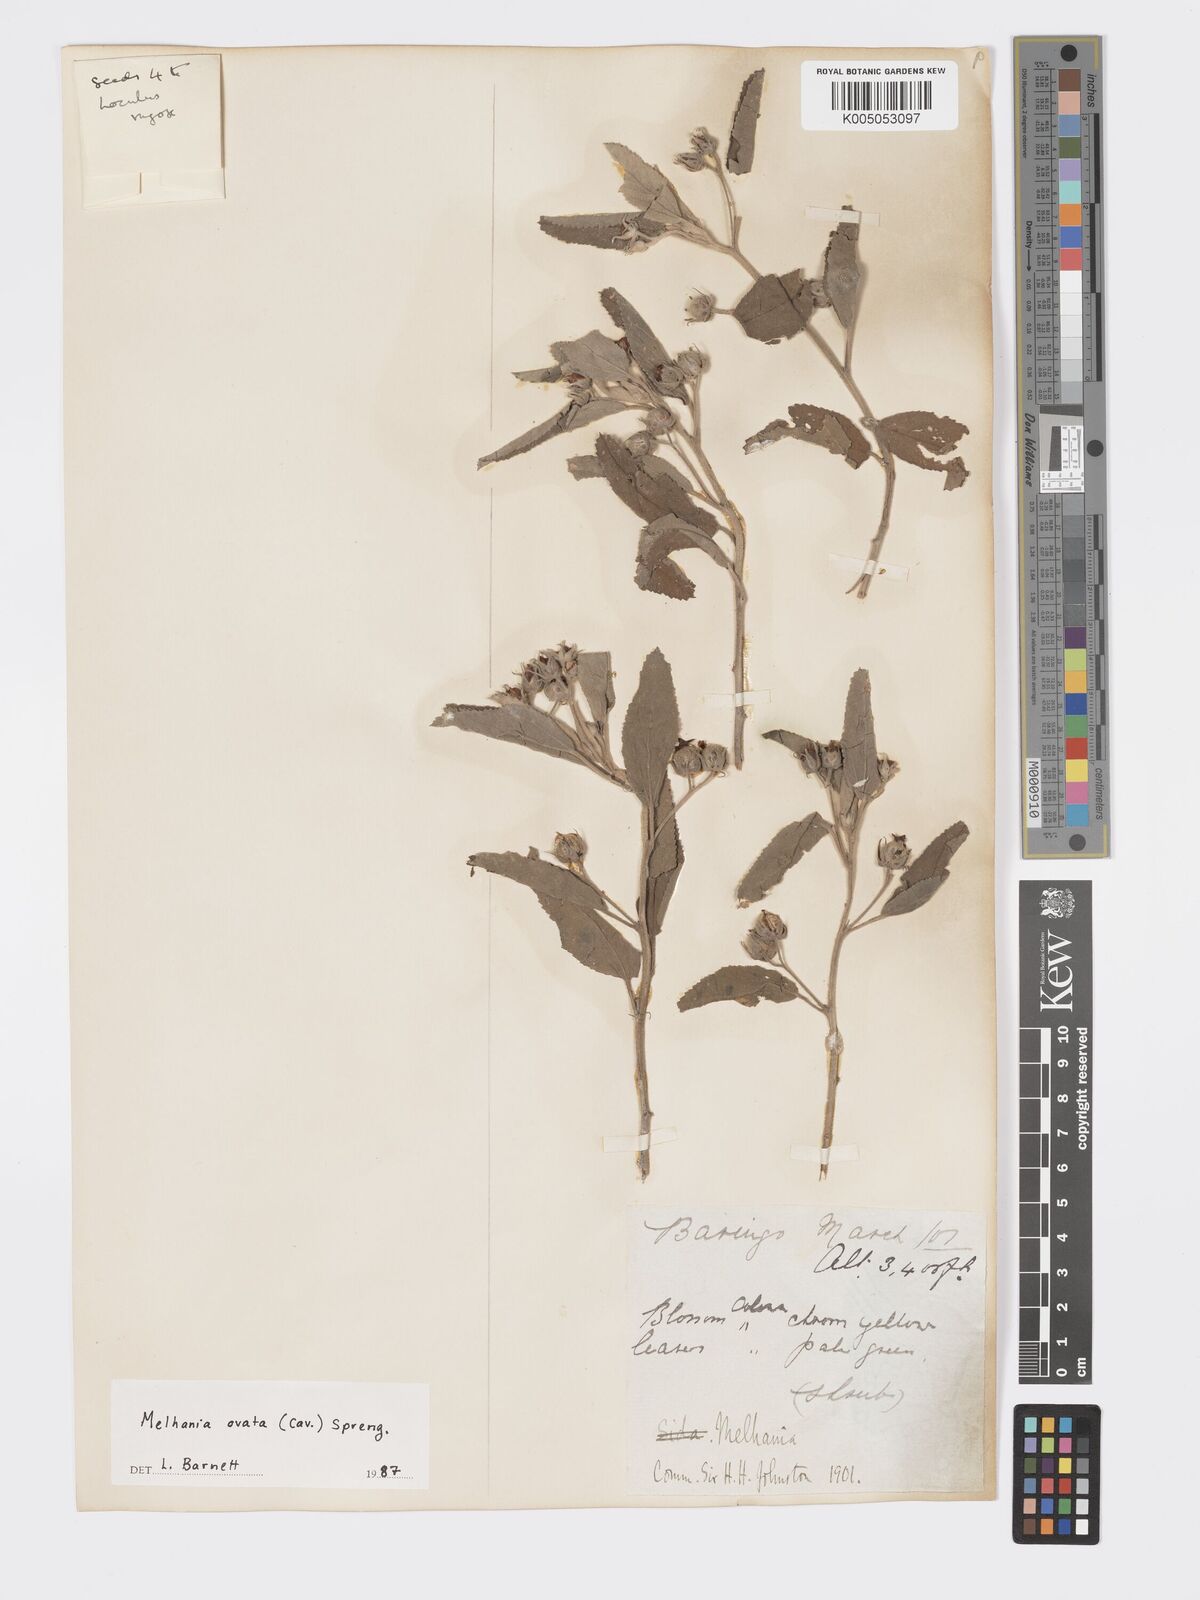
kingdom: Plantae
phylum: Tracheophyta
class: Magnoliopsida
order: Malvales
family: Malvaceae
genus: Melhania
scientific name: Melhania ovata
